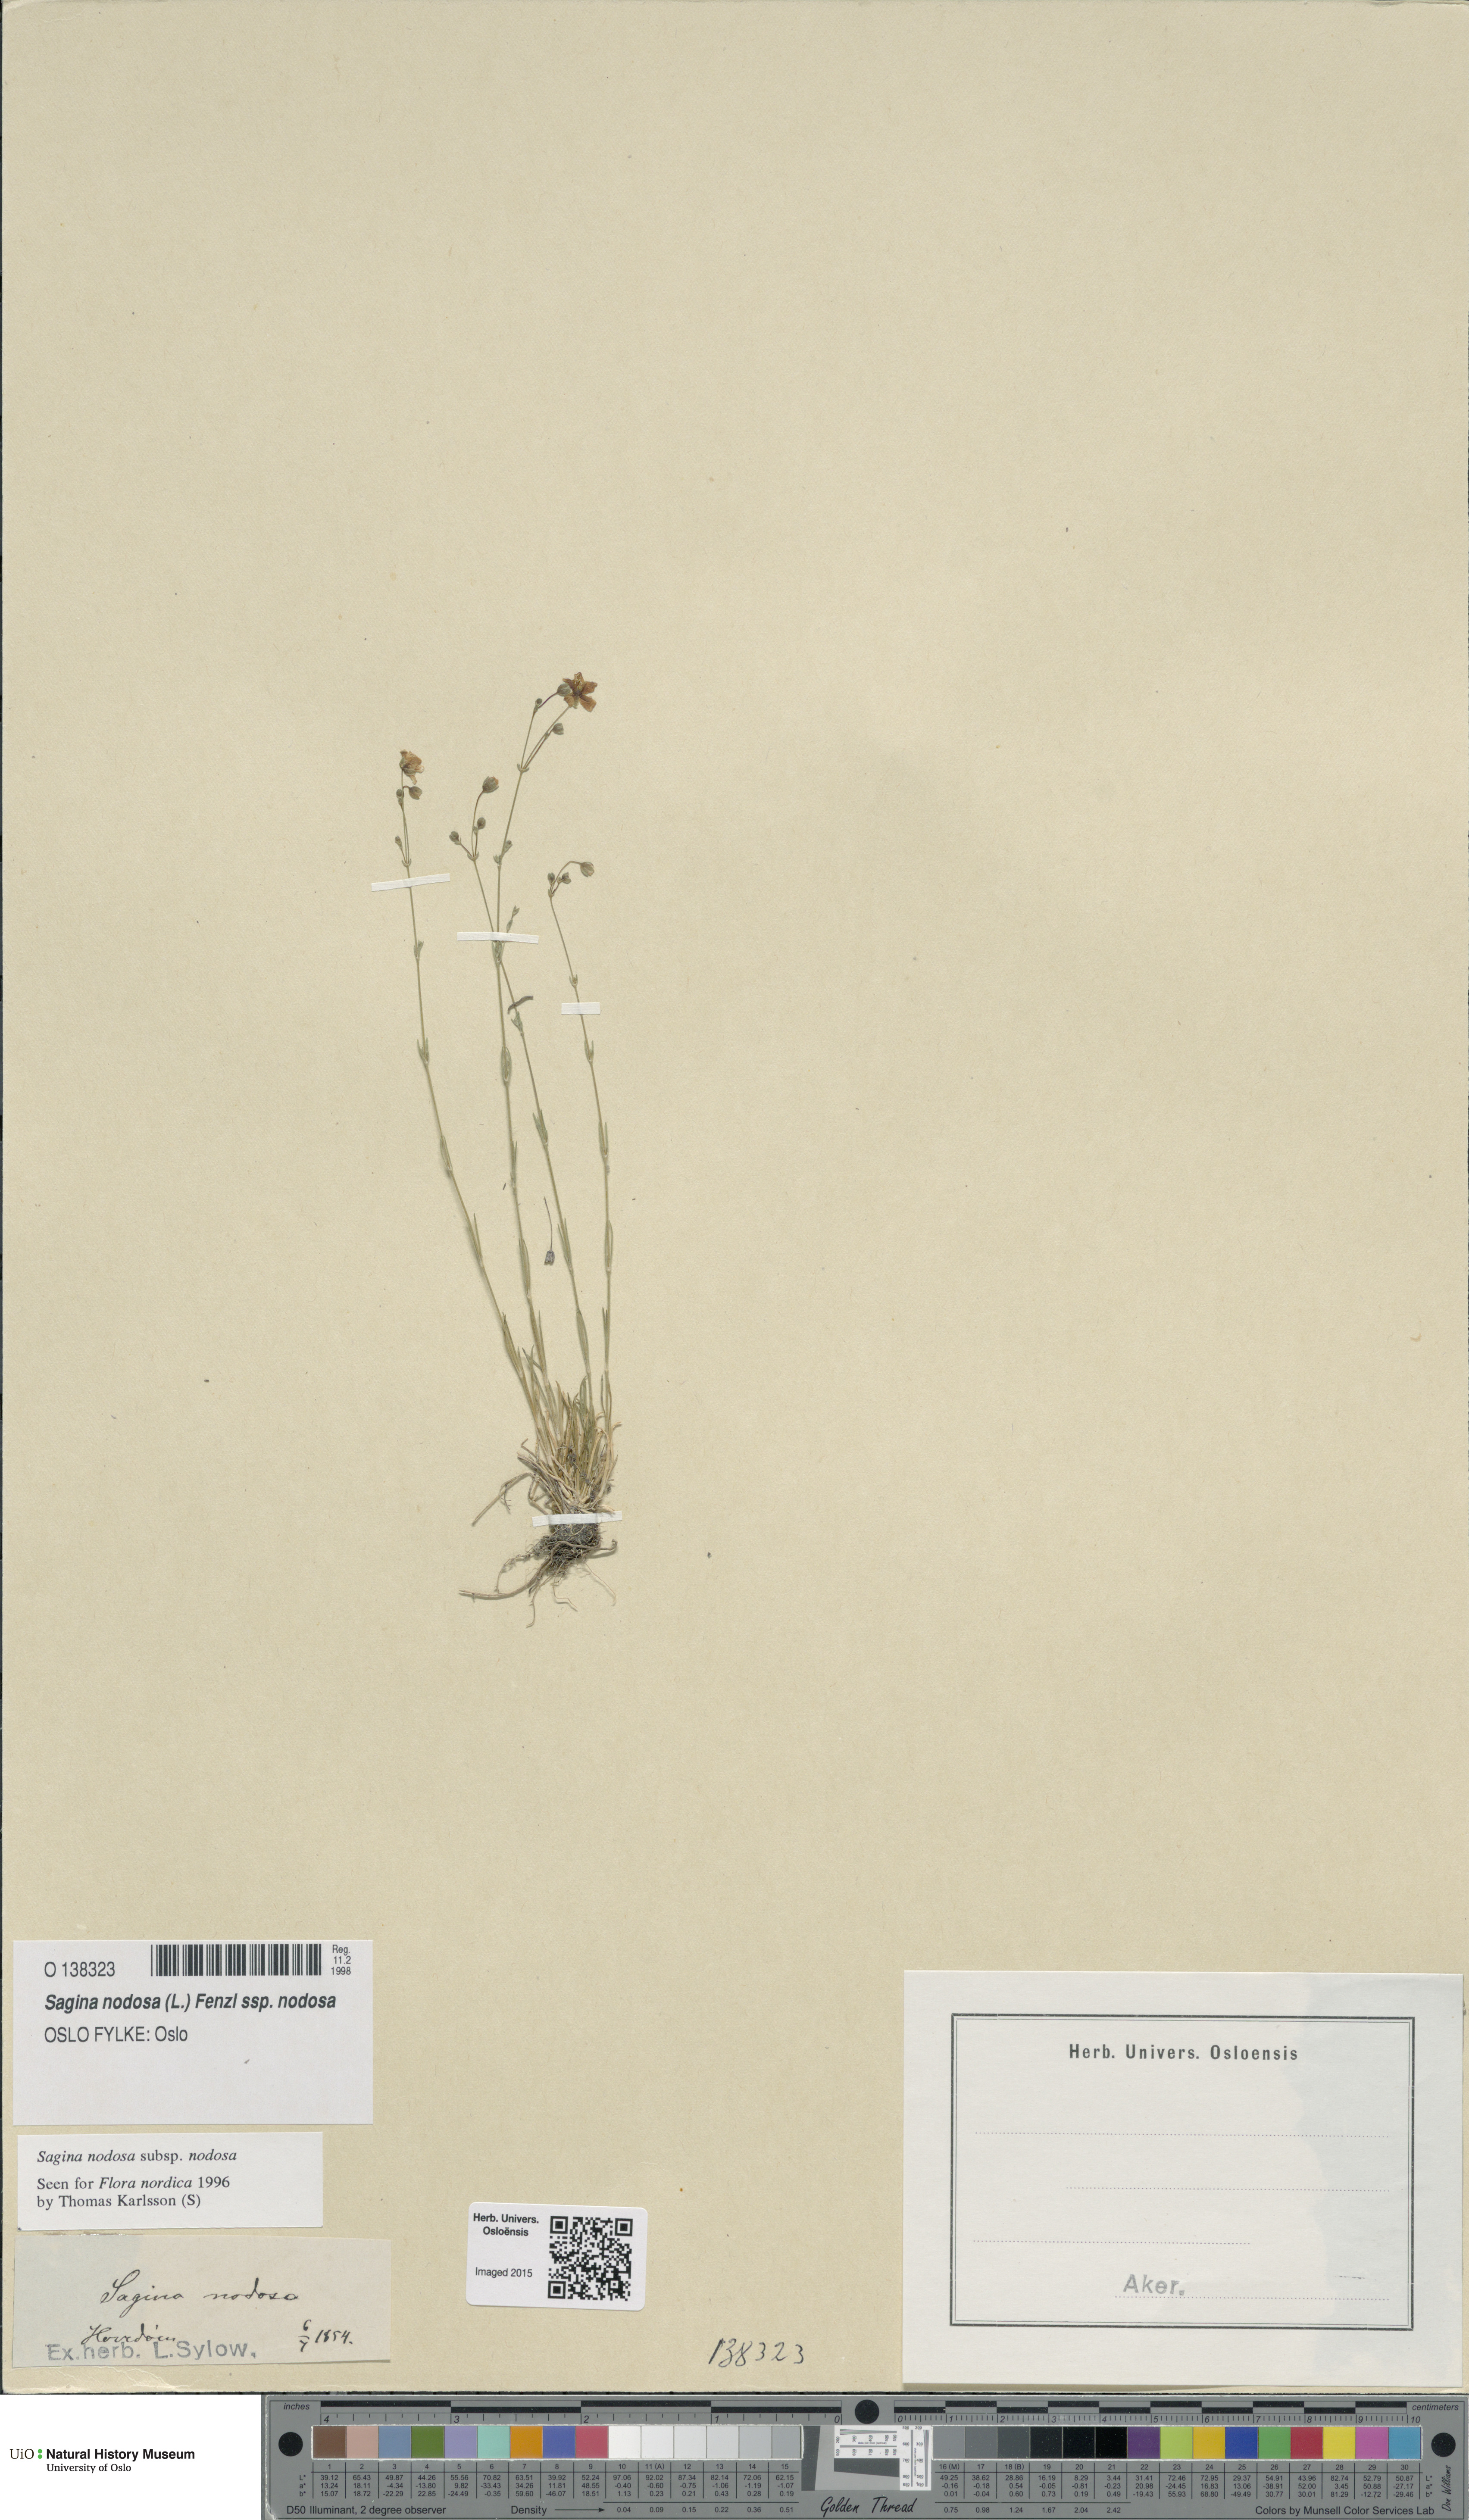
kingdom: Plantae
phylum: Tracheophyta
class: Magnoliopsida
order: Caryophyllales
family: Caryophyllaceae
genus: Sagina
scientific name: Sagina nodosa
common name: Knotted pearlwort
